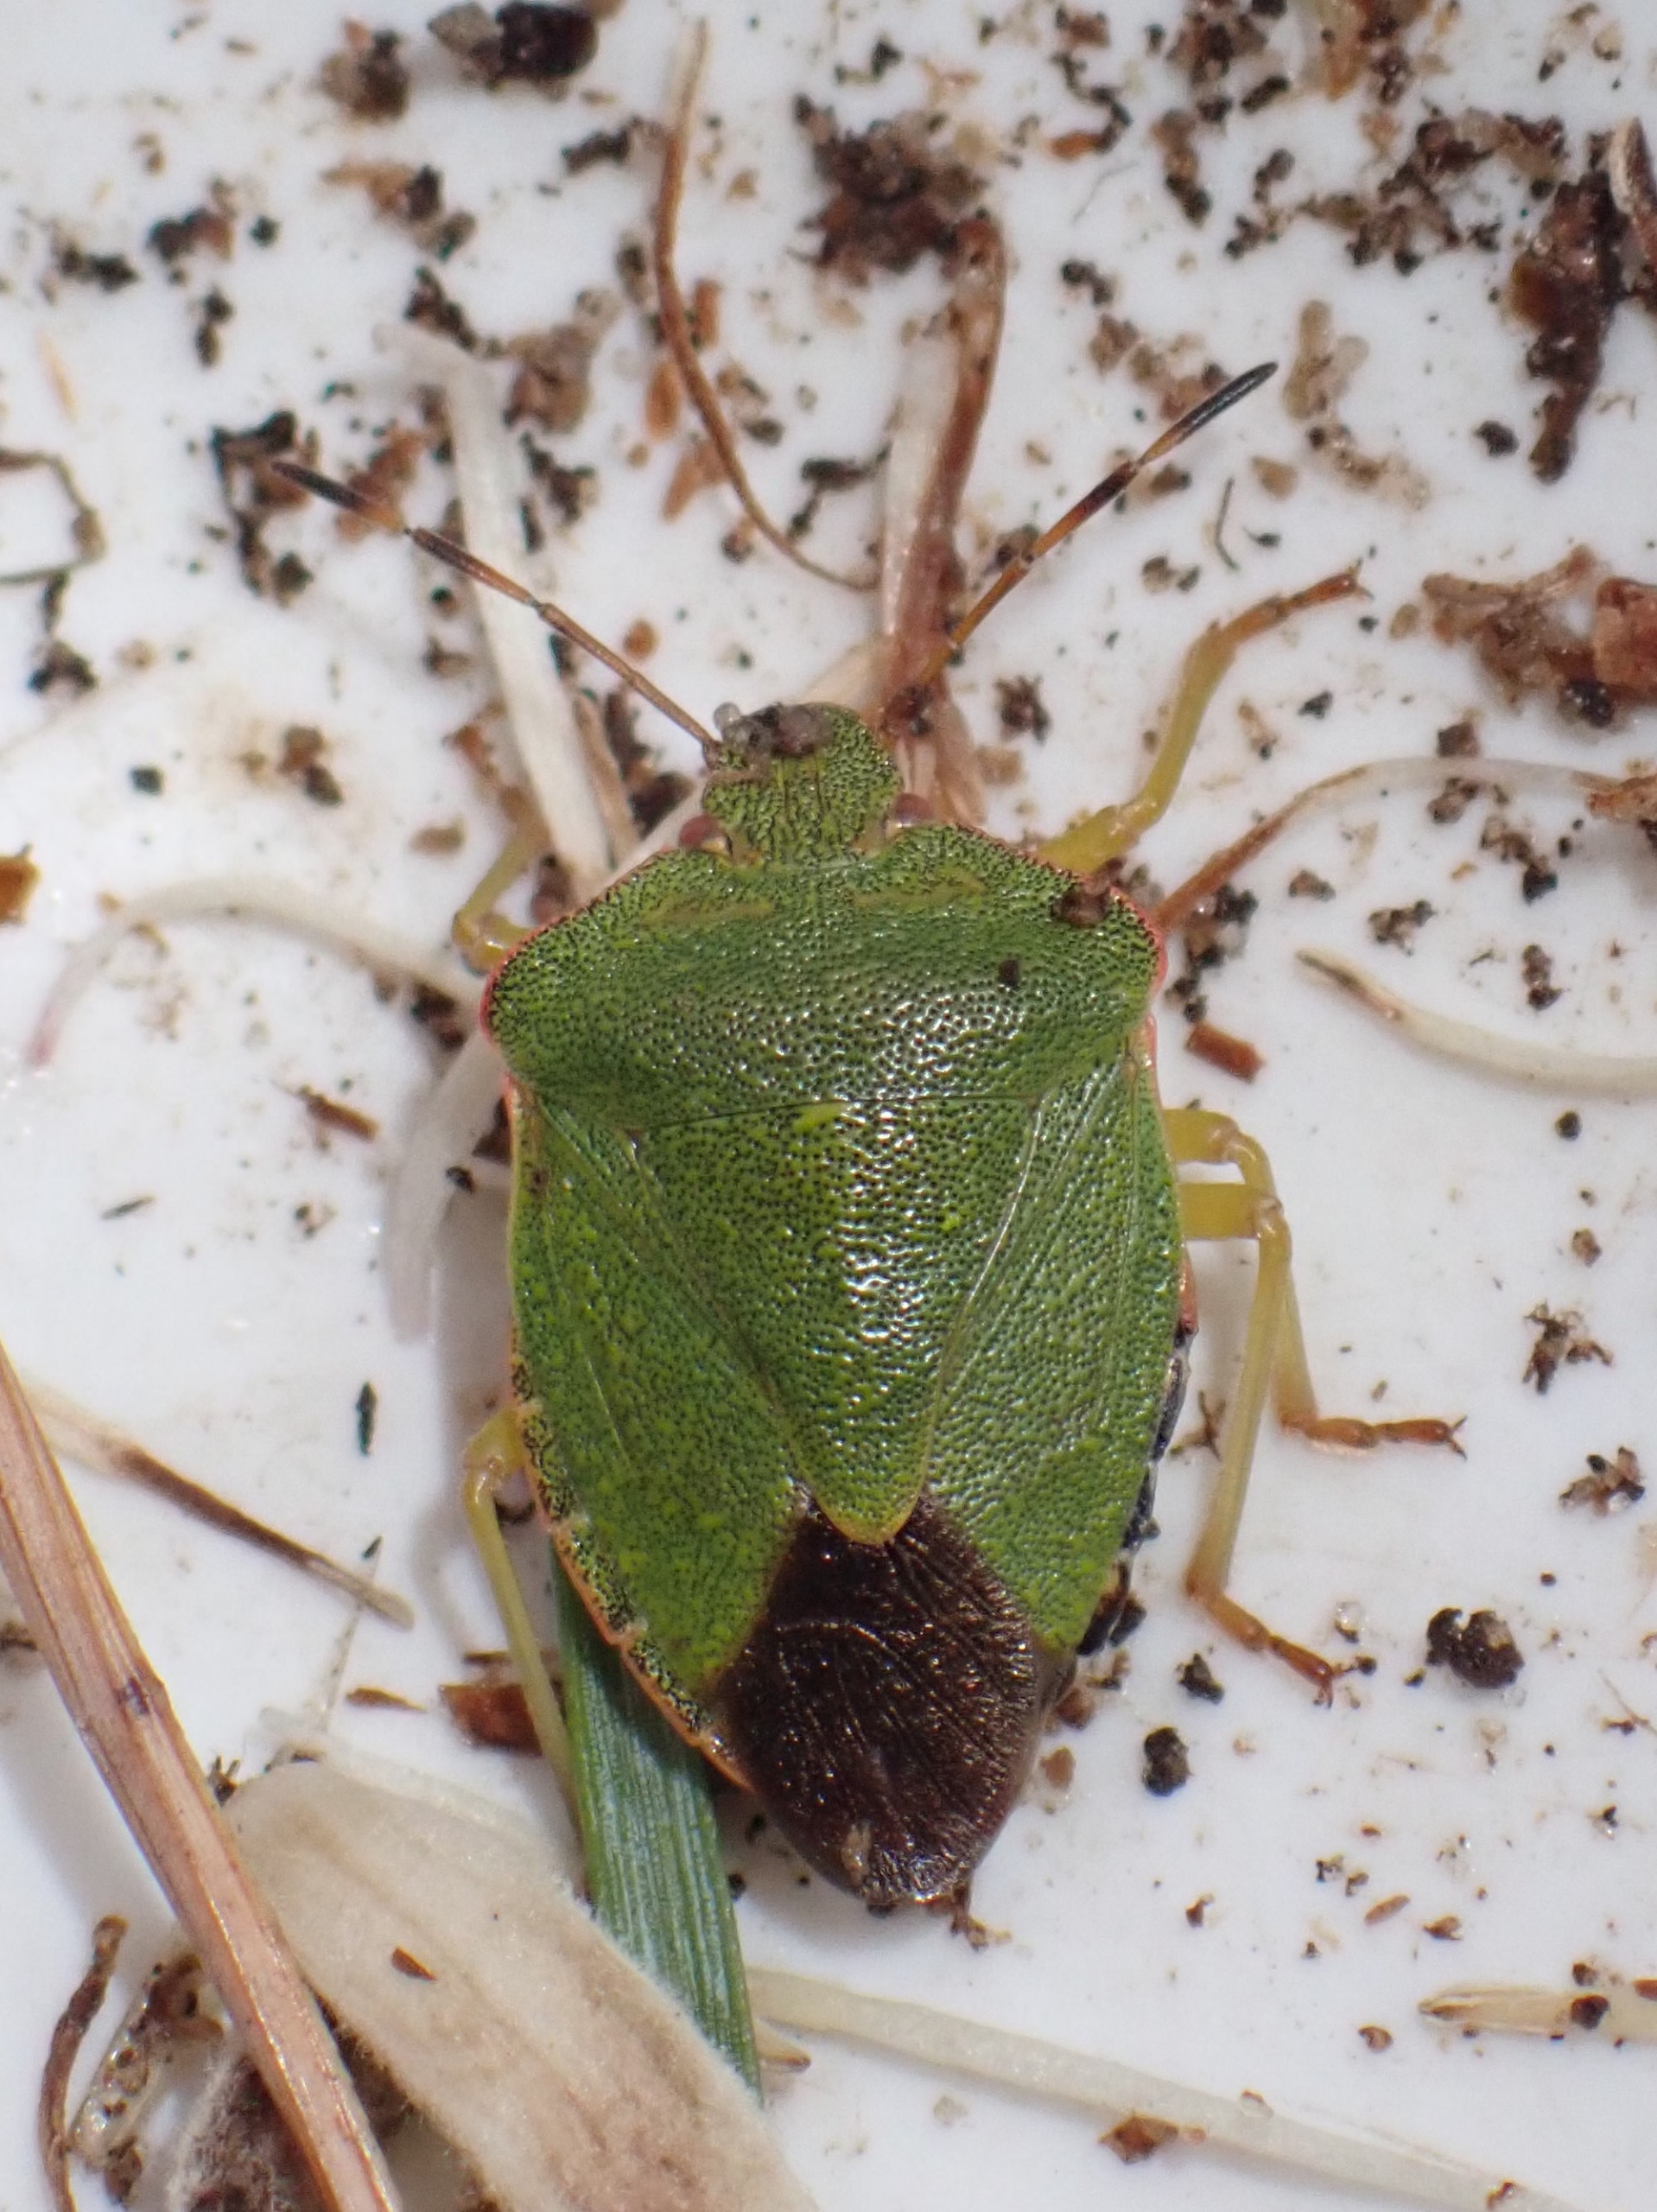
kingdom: Animalia
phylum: Arthropoda
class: Insecta
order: Hemiptera
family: Pentatomidae
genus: Palomena
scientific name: Palomena prasina
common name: Grøn bredtæge
